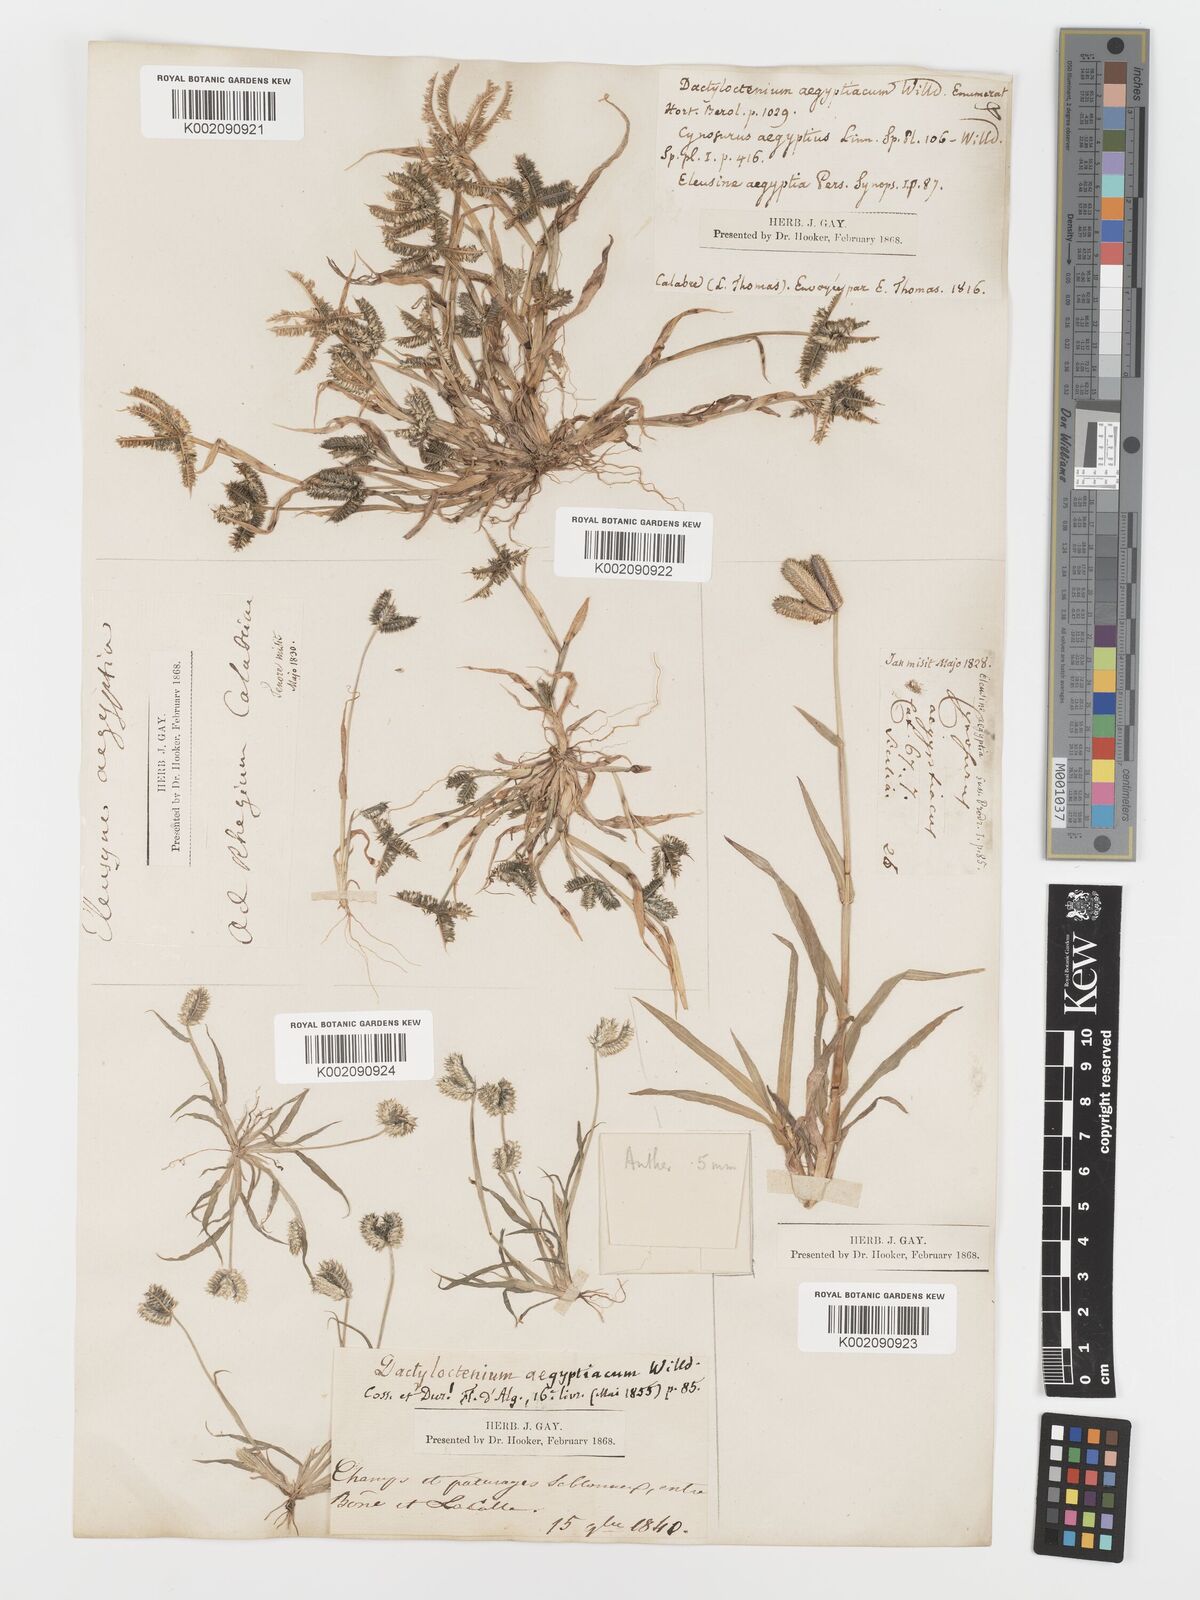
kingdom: Plantae
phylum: Tracheophyta
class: Liliopsida
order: Poales
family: Poaceae
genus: Dactyloctenium
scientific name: Dactyloctenium aegyptium
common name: Egyptian grass
